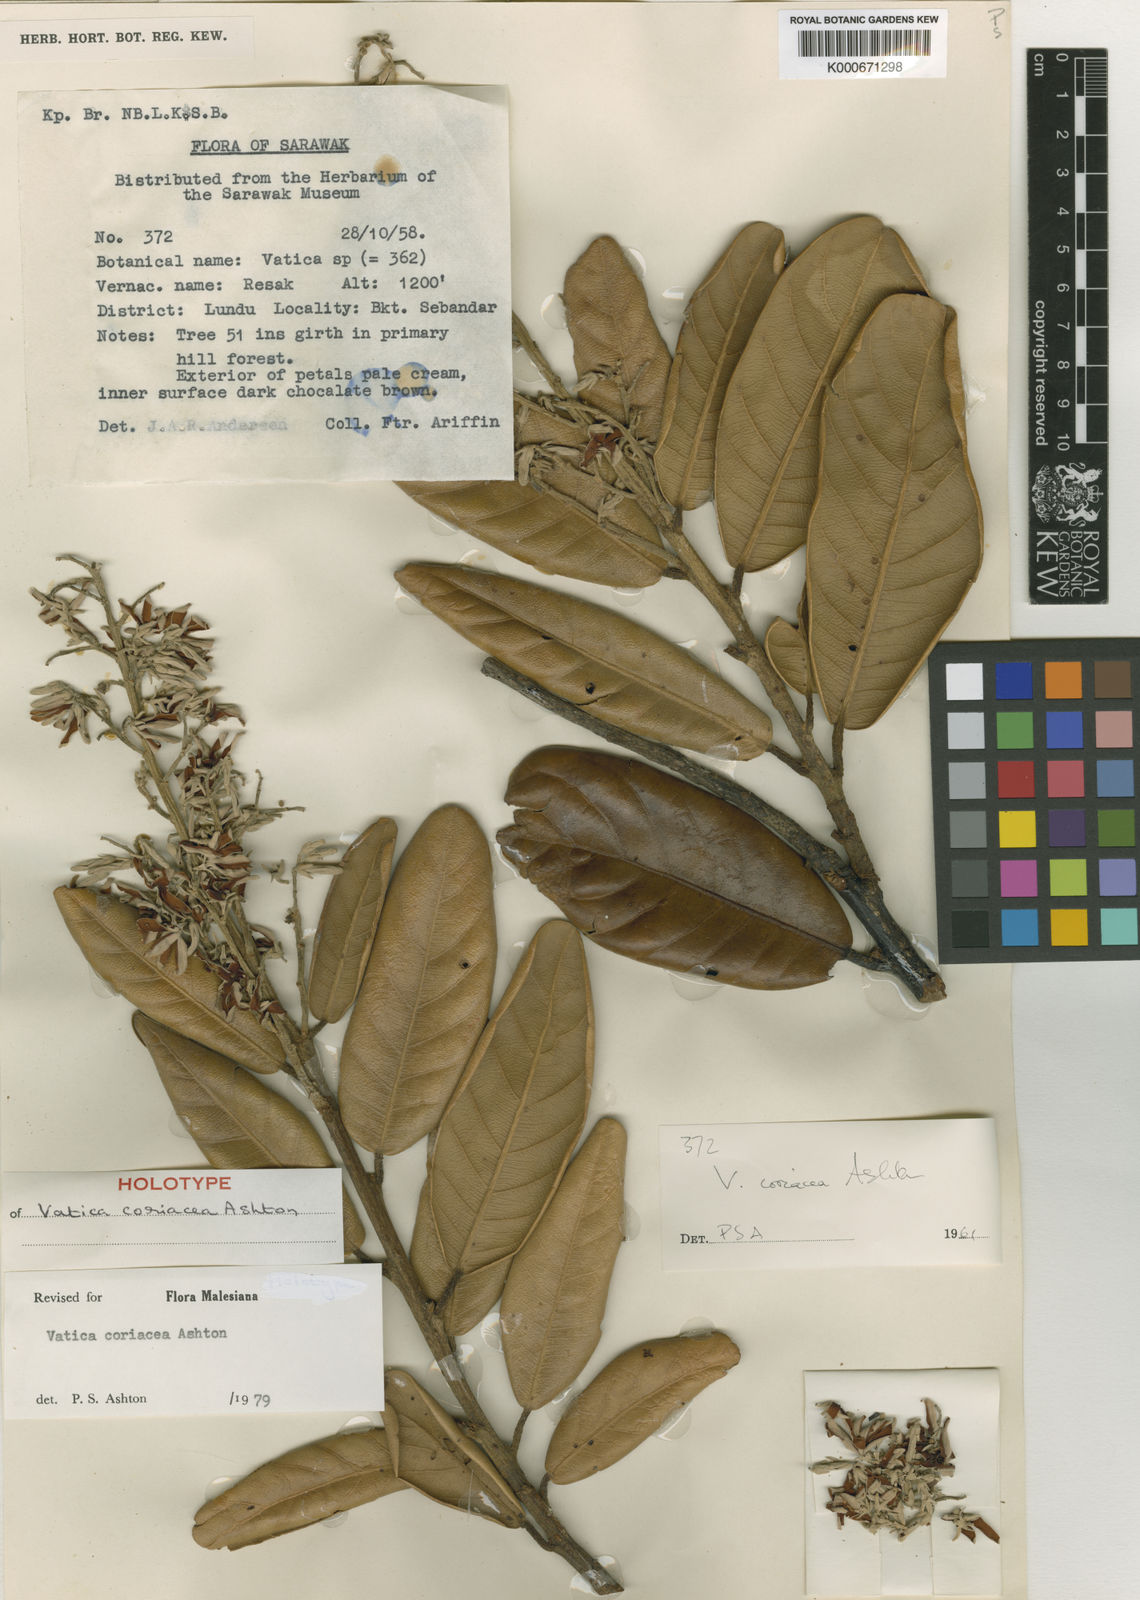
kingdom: Plantae
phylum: Tracheophyta
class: Magnoliopsida
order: Malvales
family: Dipterocarpaceae
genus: Vatica
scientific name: Vatica coriacea
